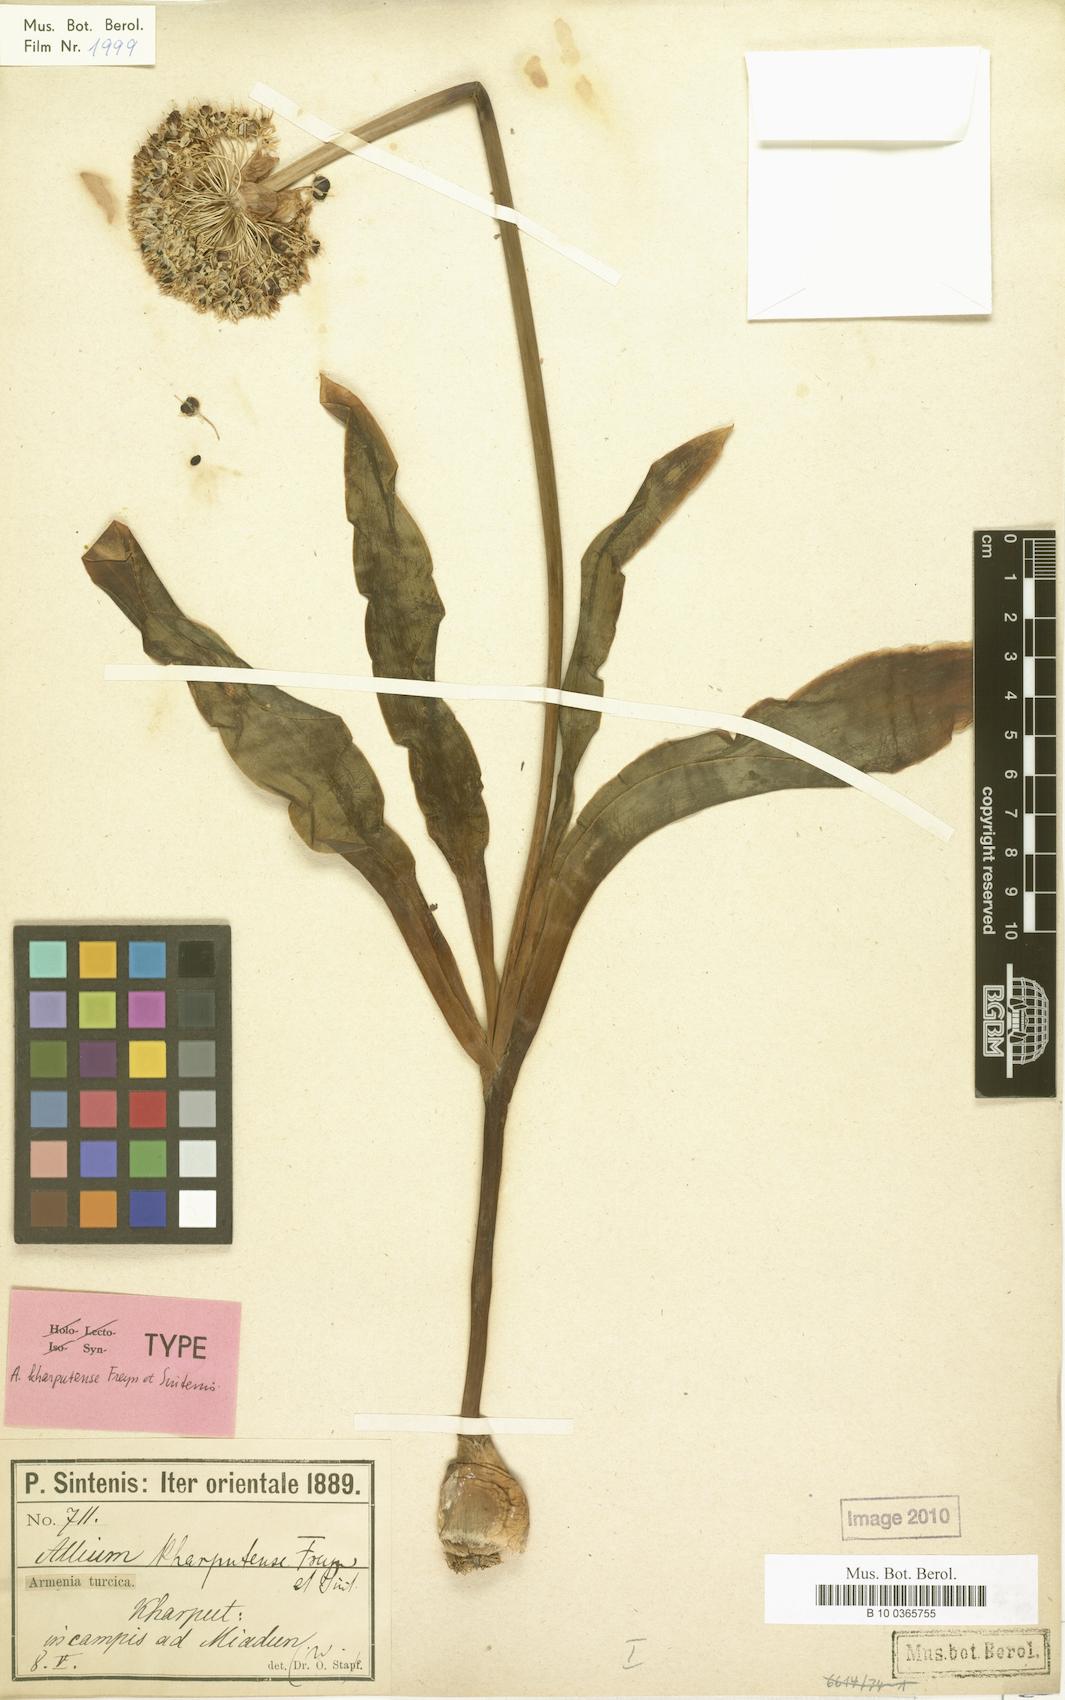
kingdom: Plantae
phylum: Tracheophyta
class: Liliopsida
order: Asparagales
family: Amaryllidaceae
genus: Allium
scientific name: Allium kharputense
